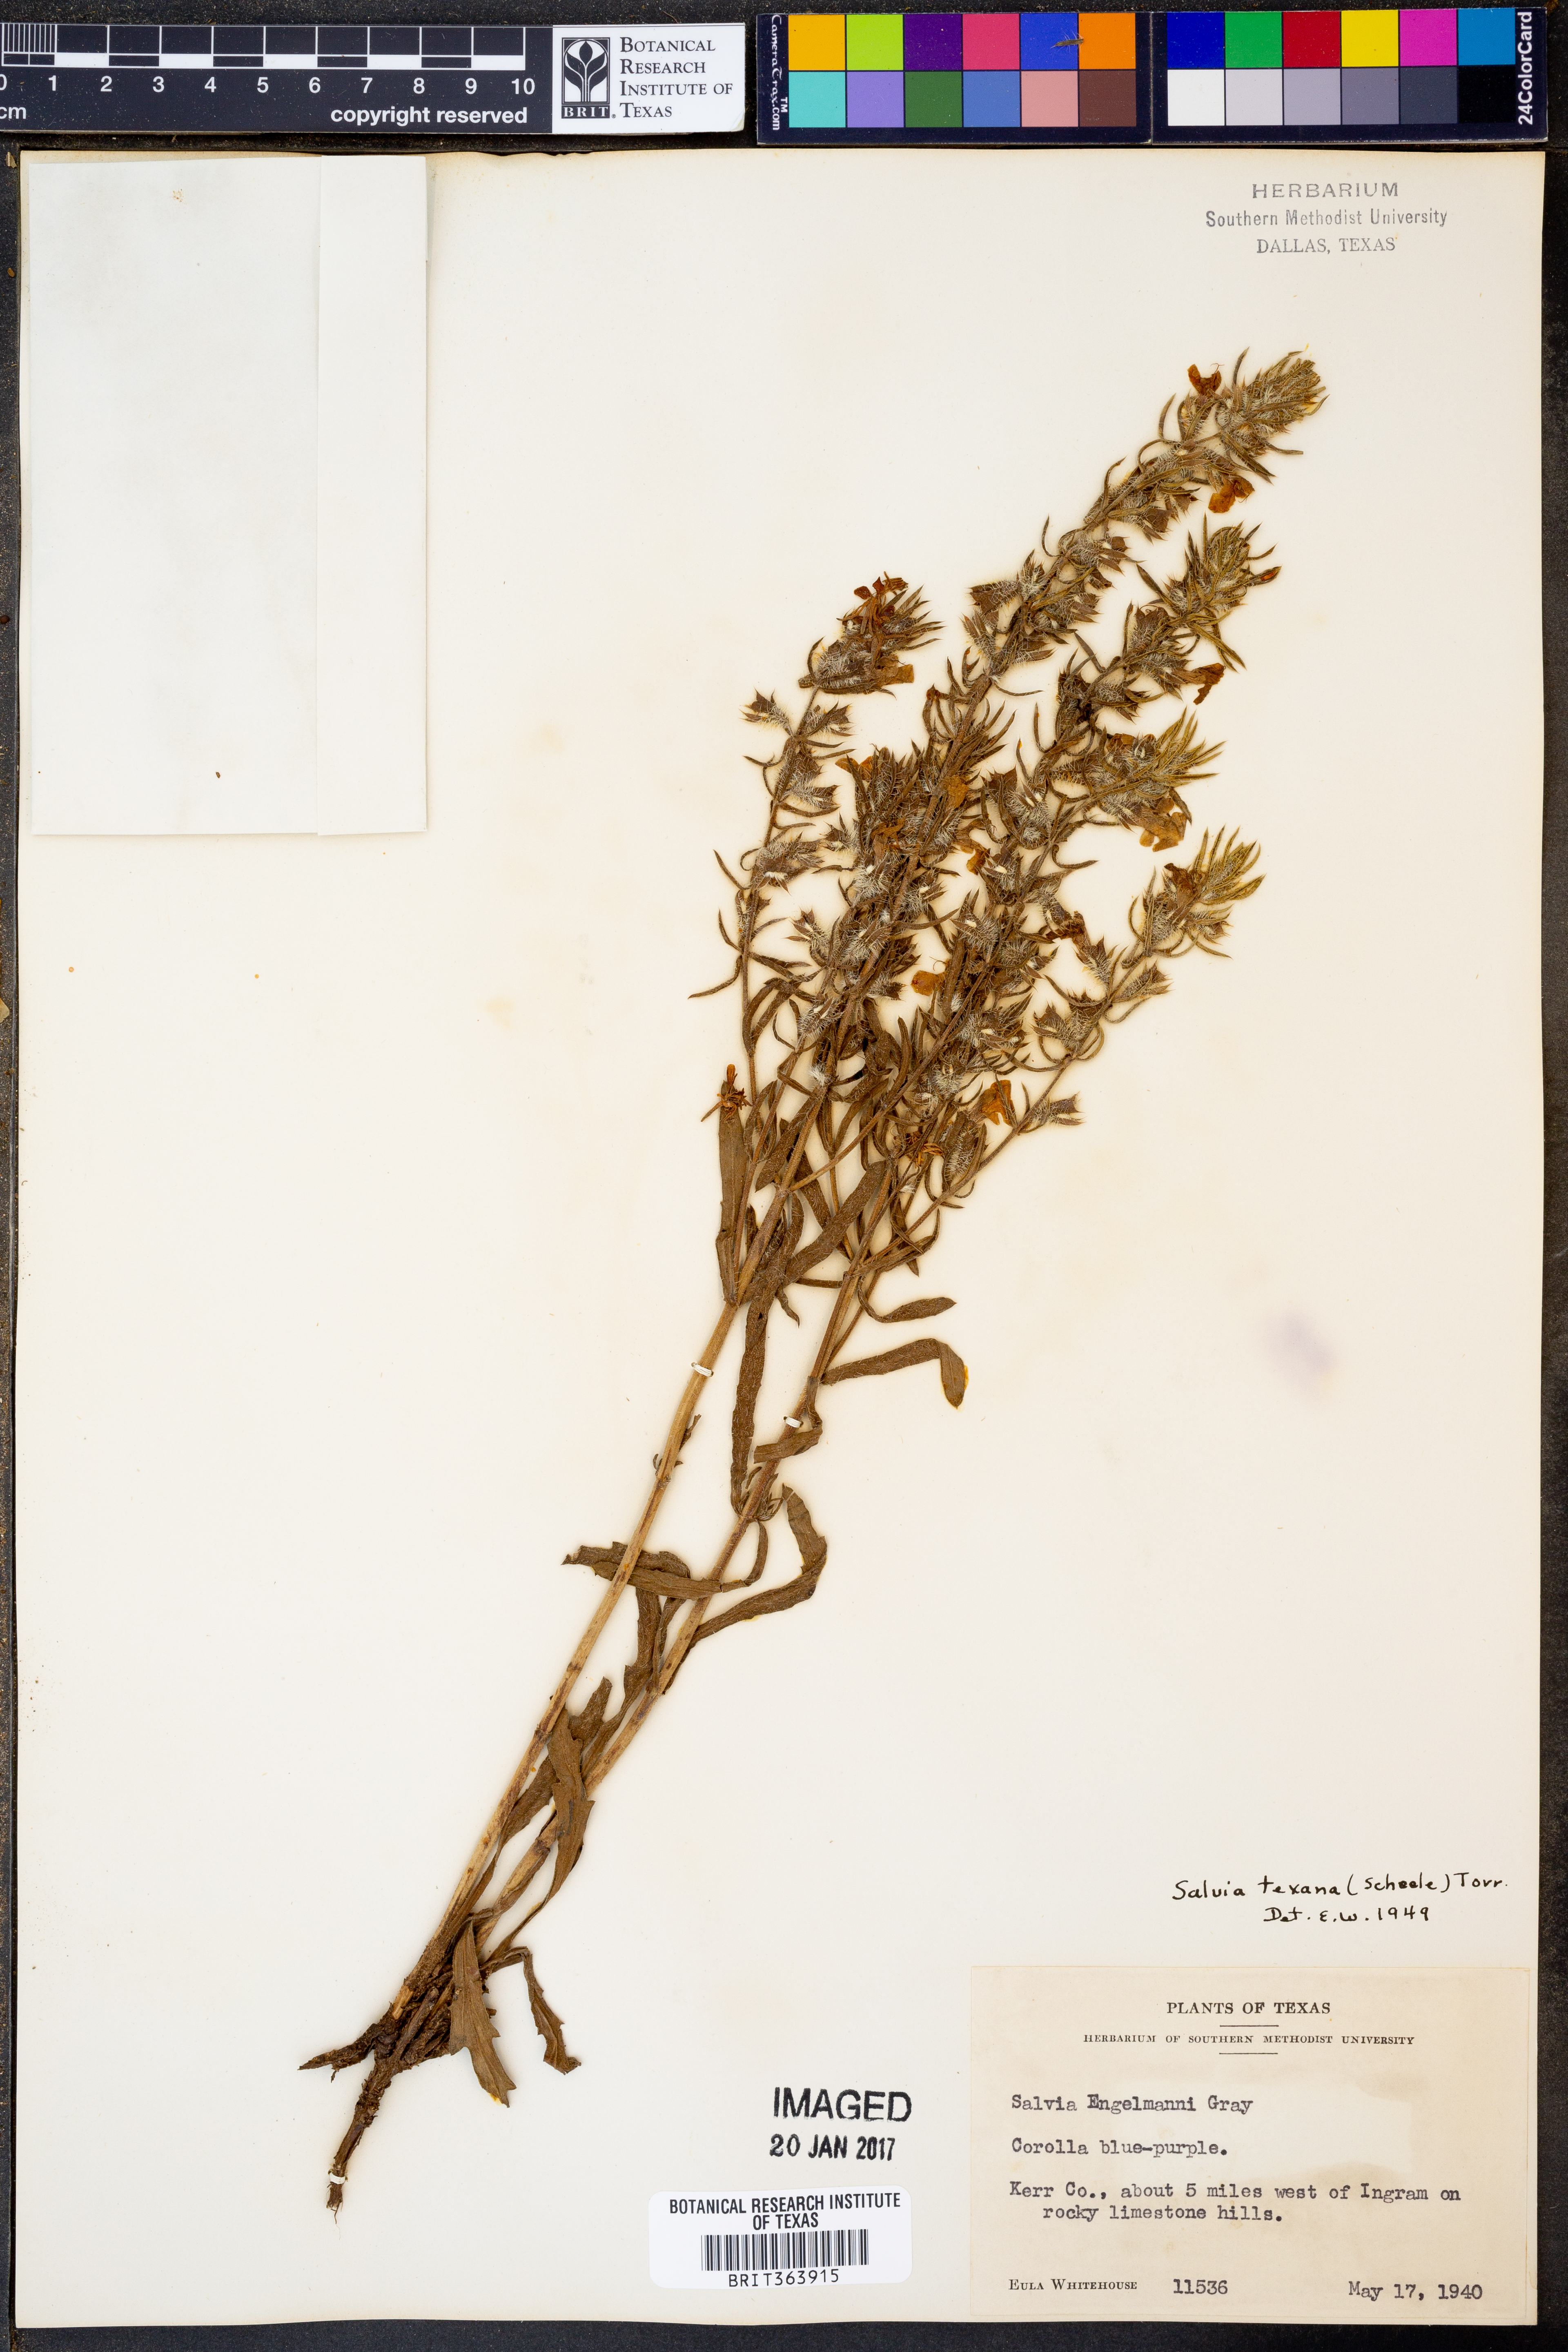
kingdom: Plantae
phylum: Tracheophyta
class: Magnoliopsida
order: Lamiales
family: Lamiaceae
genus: Salvia
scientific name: Salvia texana
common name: Texas sage
